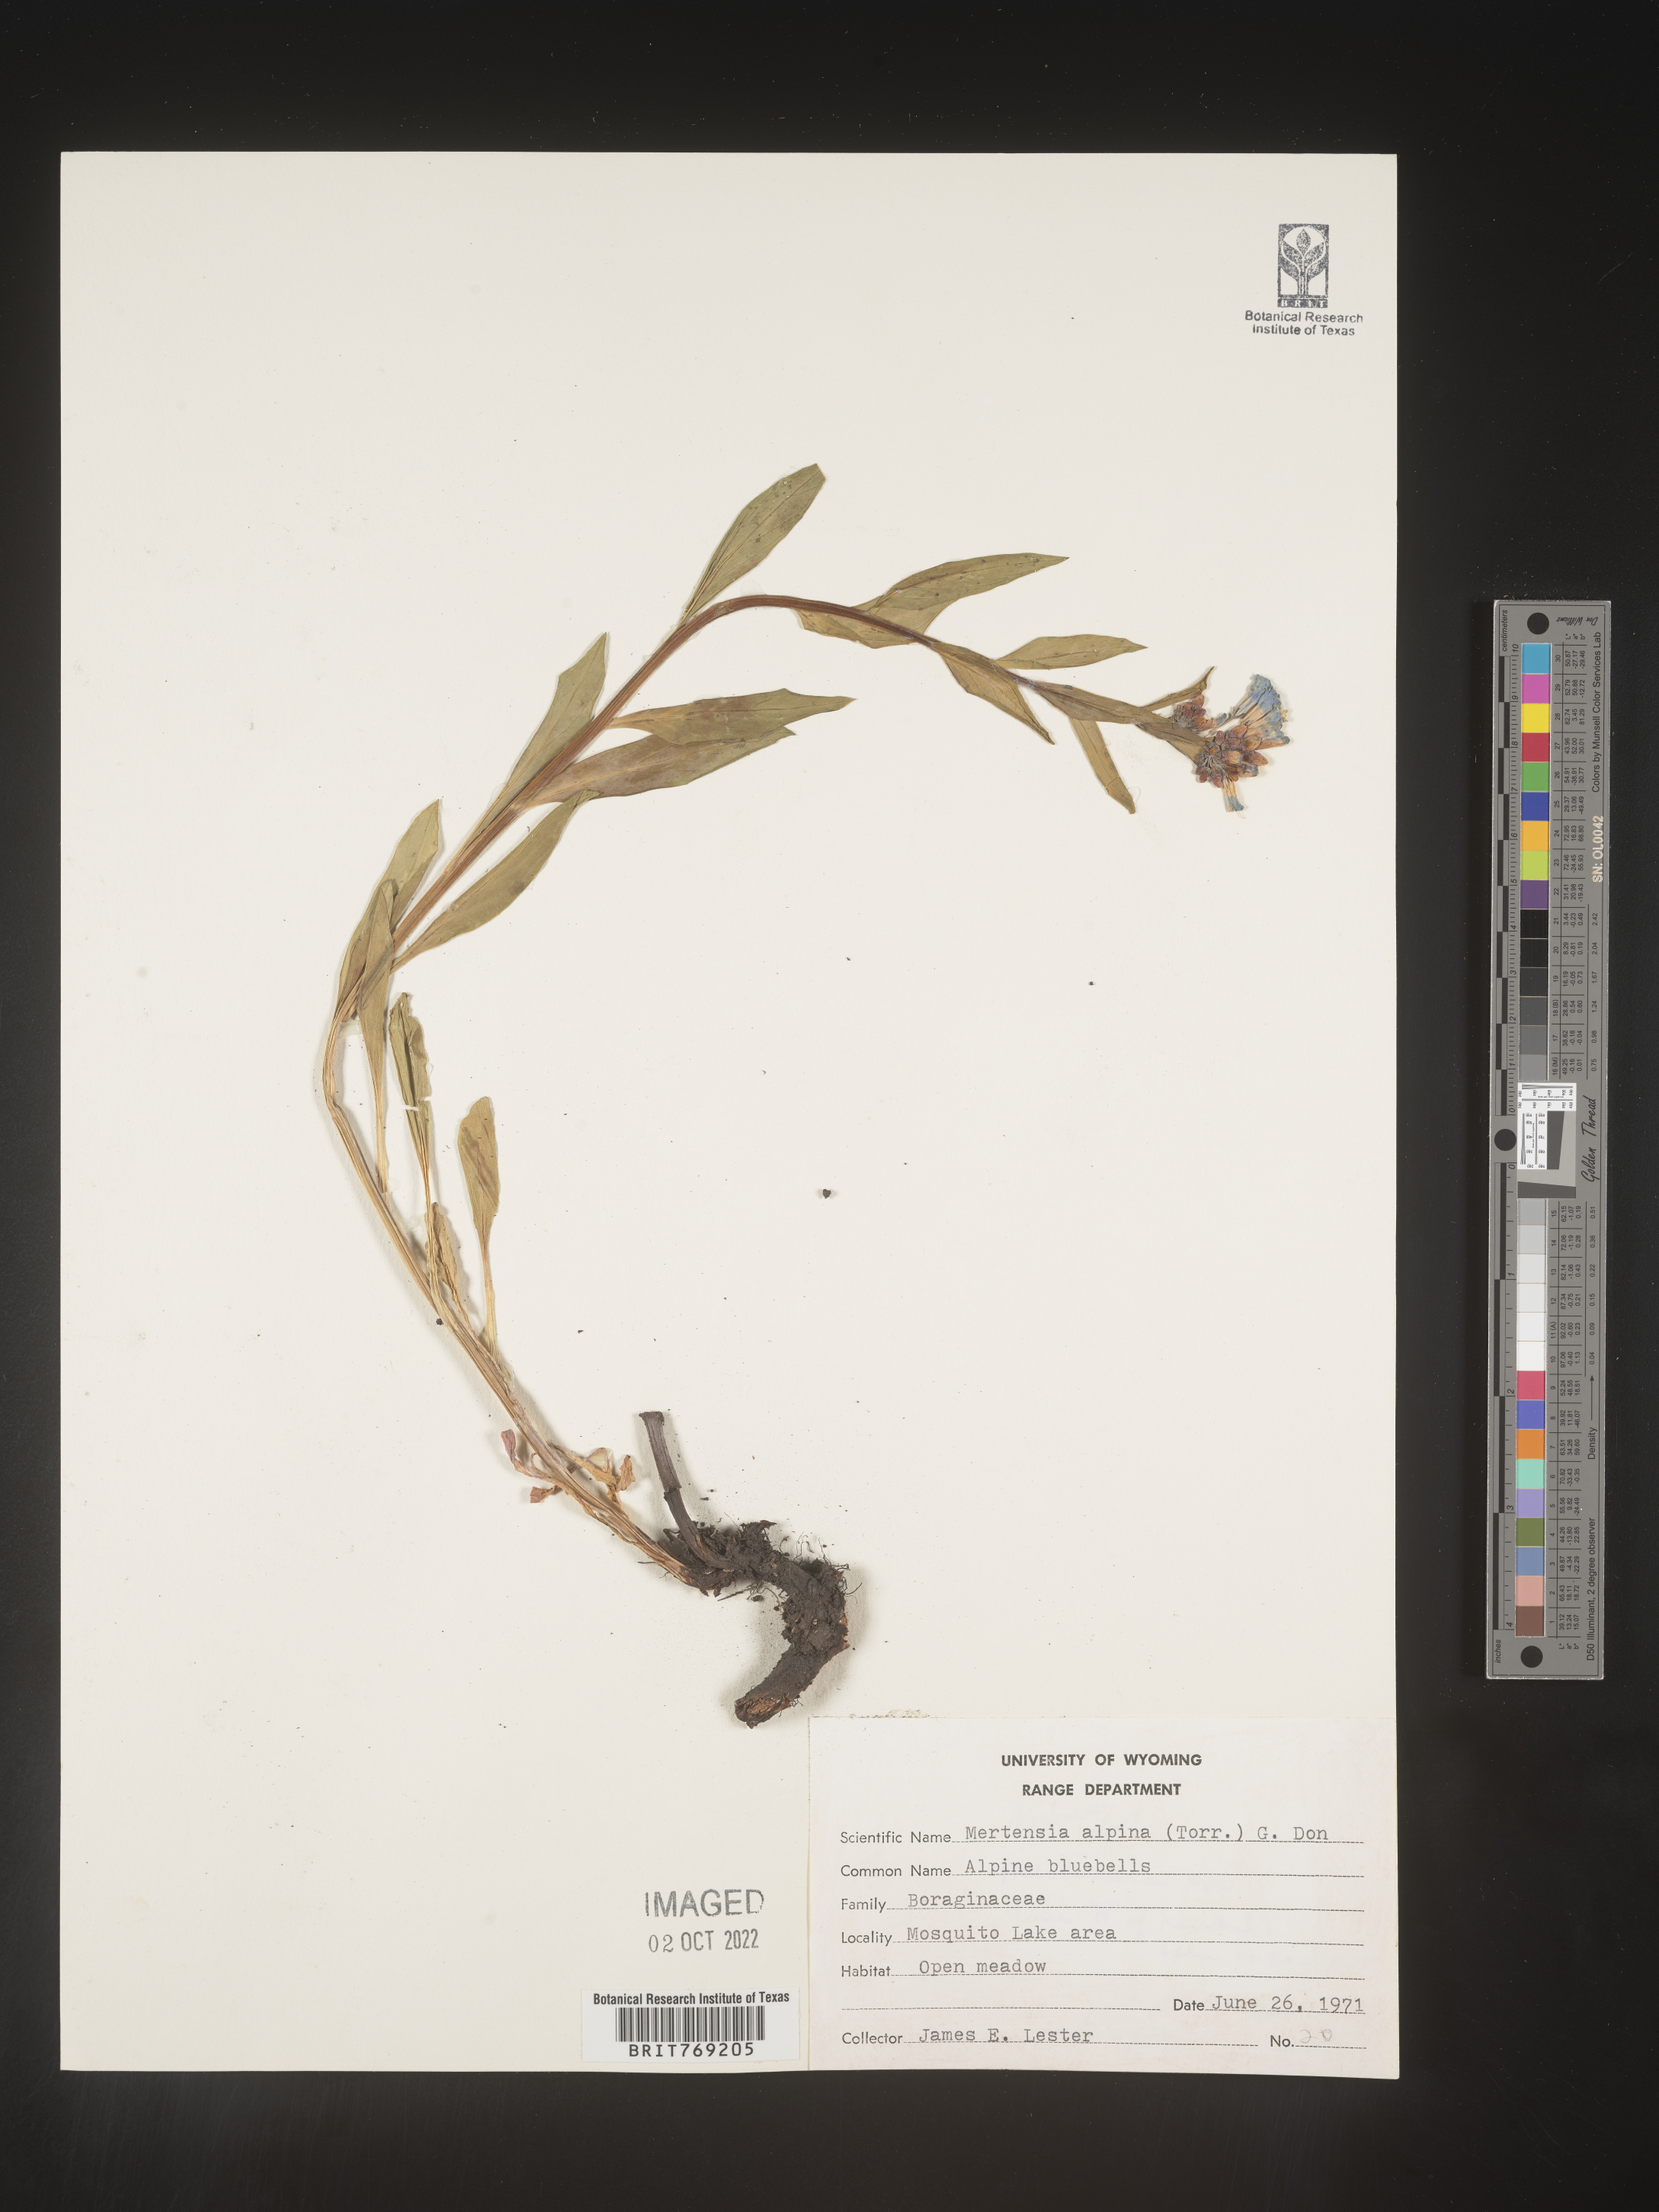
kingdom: Plantae
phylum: Tracheophyta
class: Magnoliopsida
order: Boraginales
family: Boraginaceae
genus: Mertensia
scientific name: Mertensia
